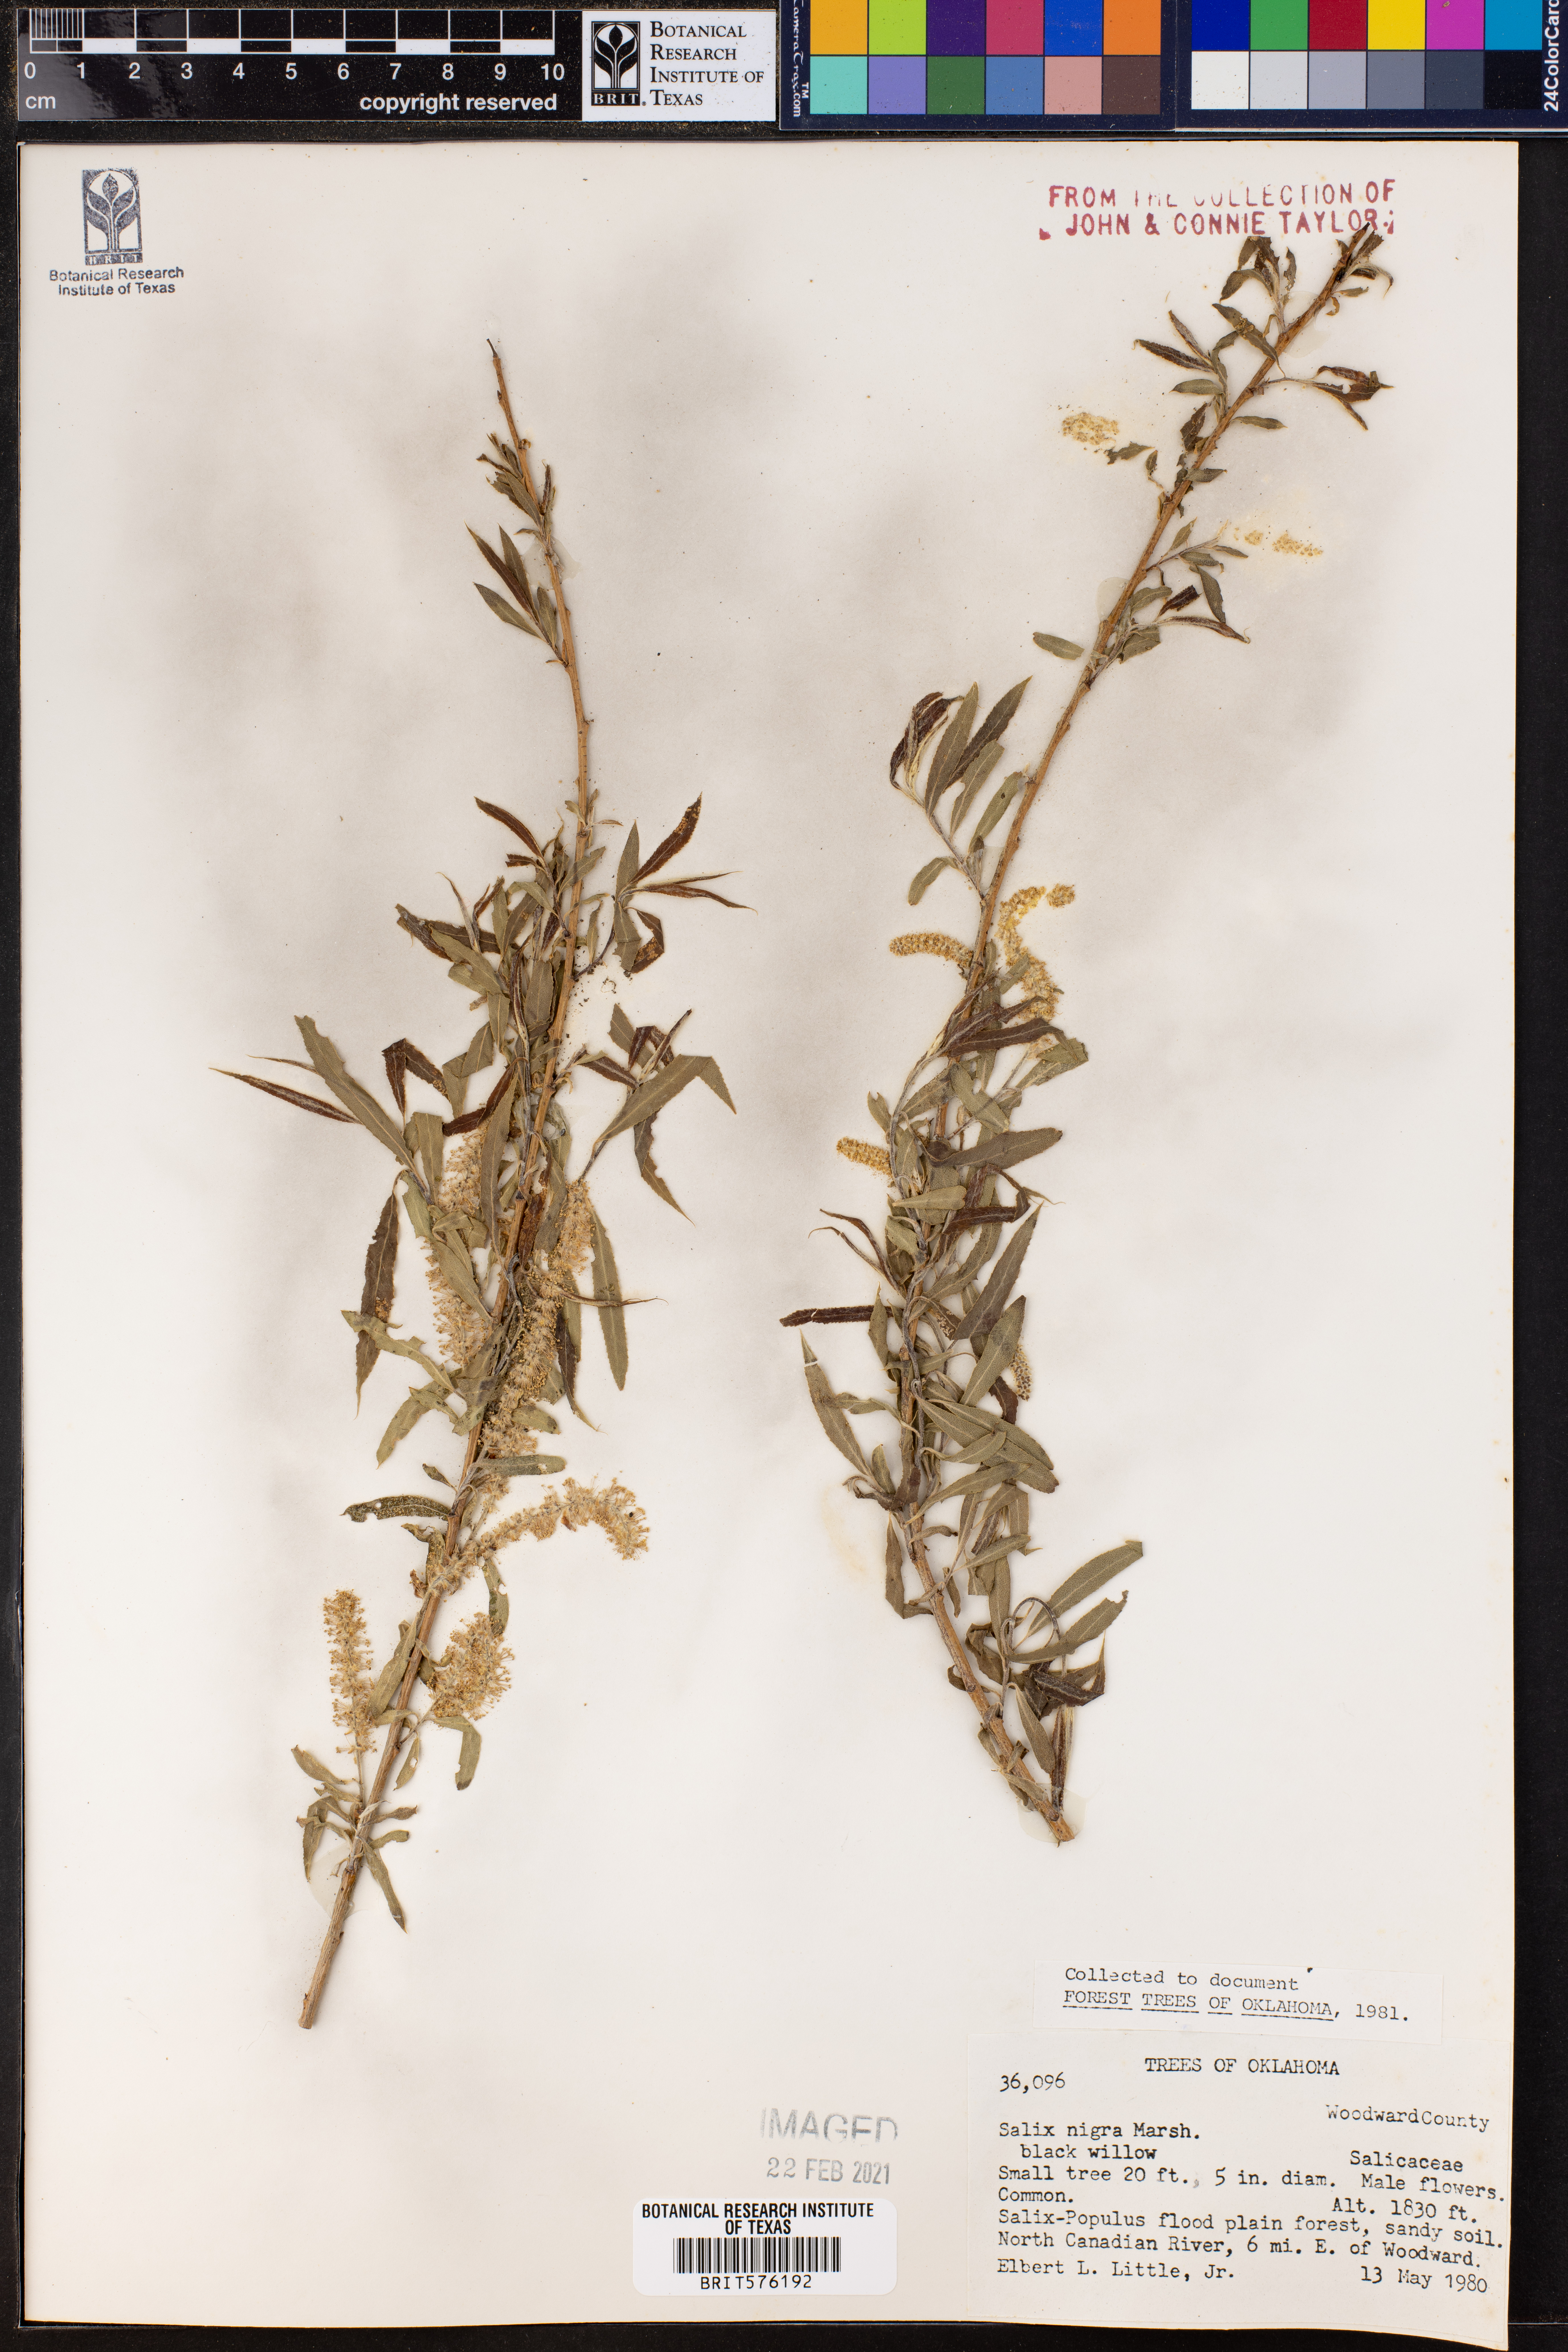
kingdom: Plantae
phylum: Tracheophyta
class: Magnoliopsida
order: Malpighiales
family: Salicaceae
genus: Salix
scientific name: Salix nigra
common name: Black willow
